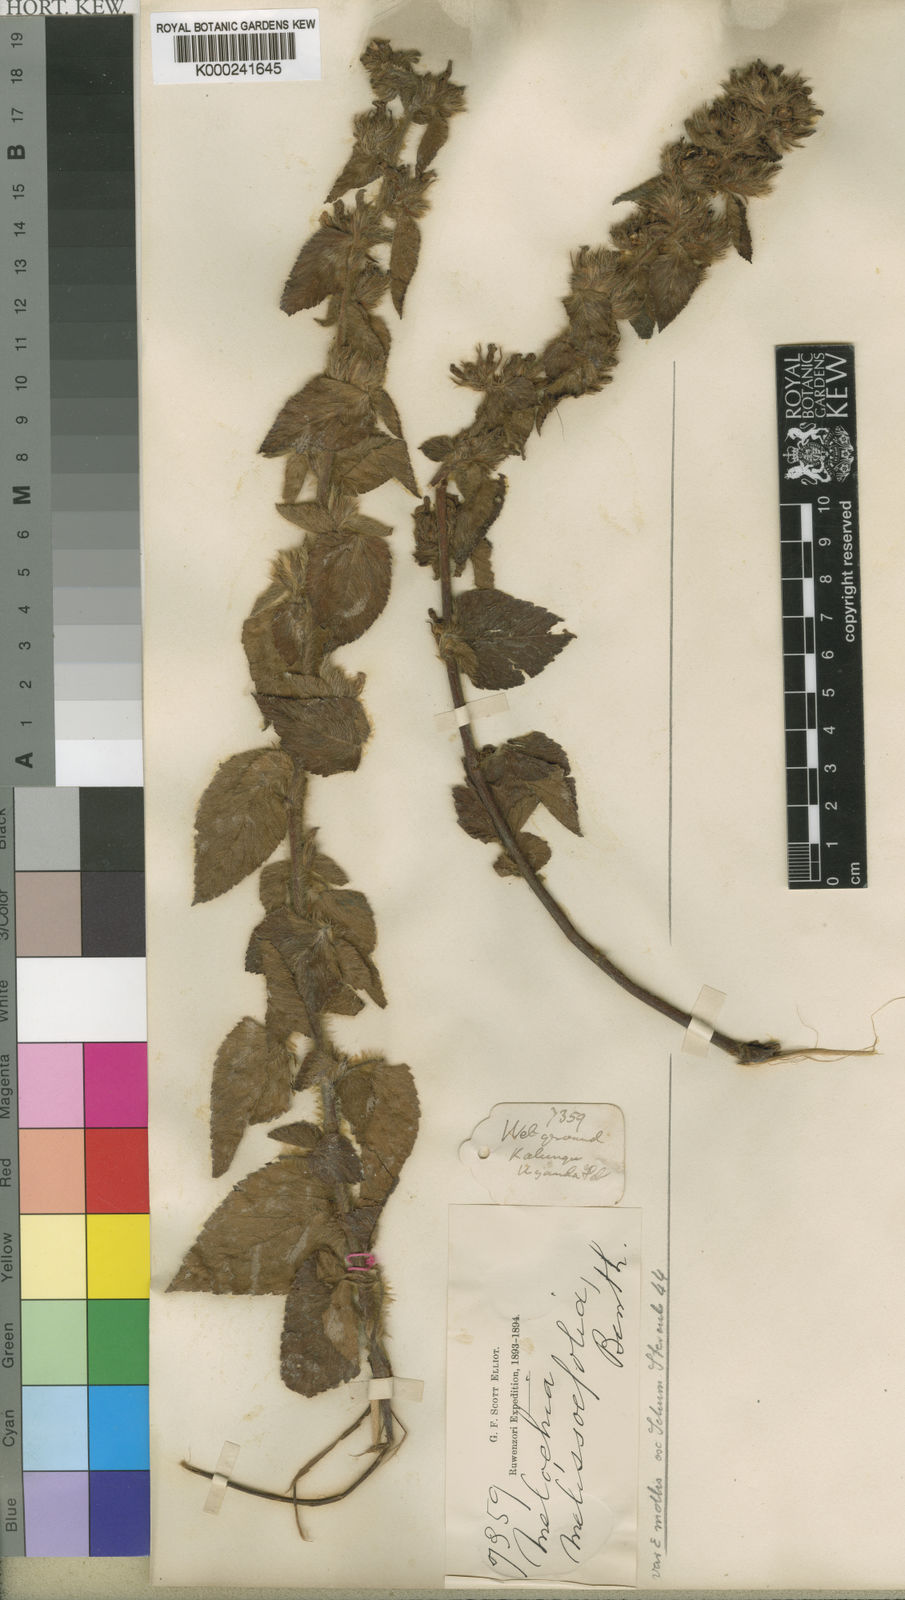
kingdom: Plantae
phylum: Tracheophyta
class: Magnoliopsida
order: Malvales
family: Malvaceae
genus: Melochia
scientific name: Melochia melissifolia
